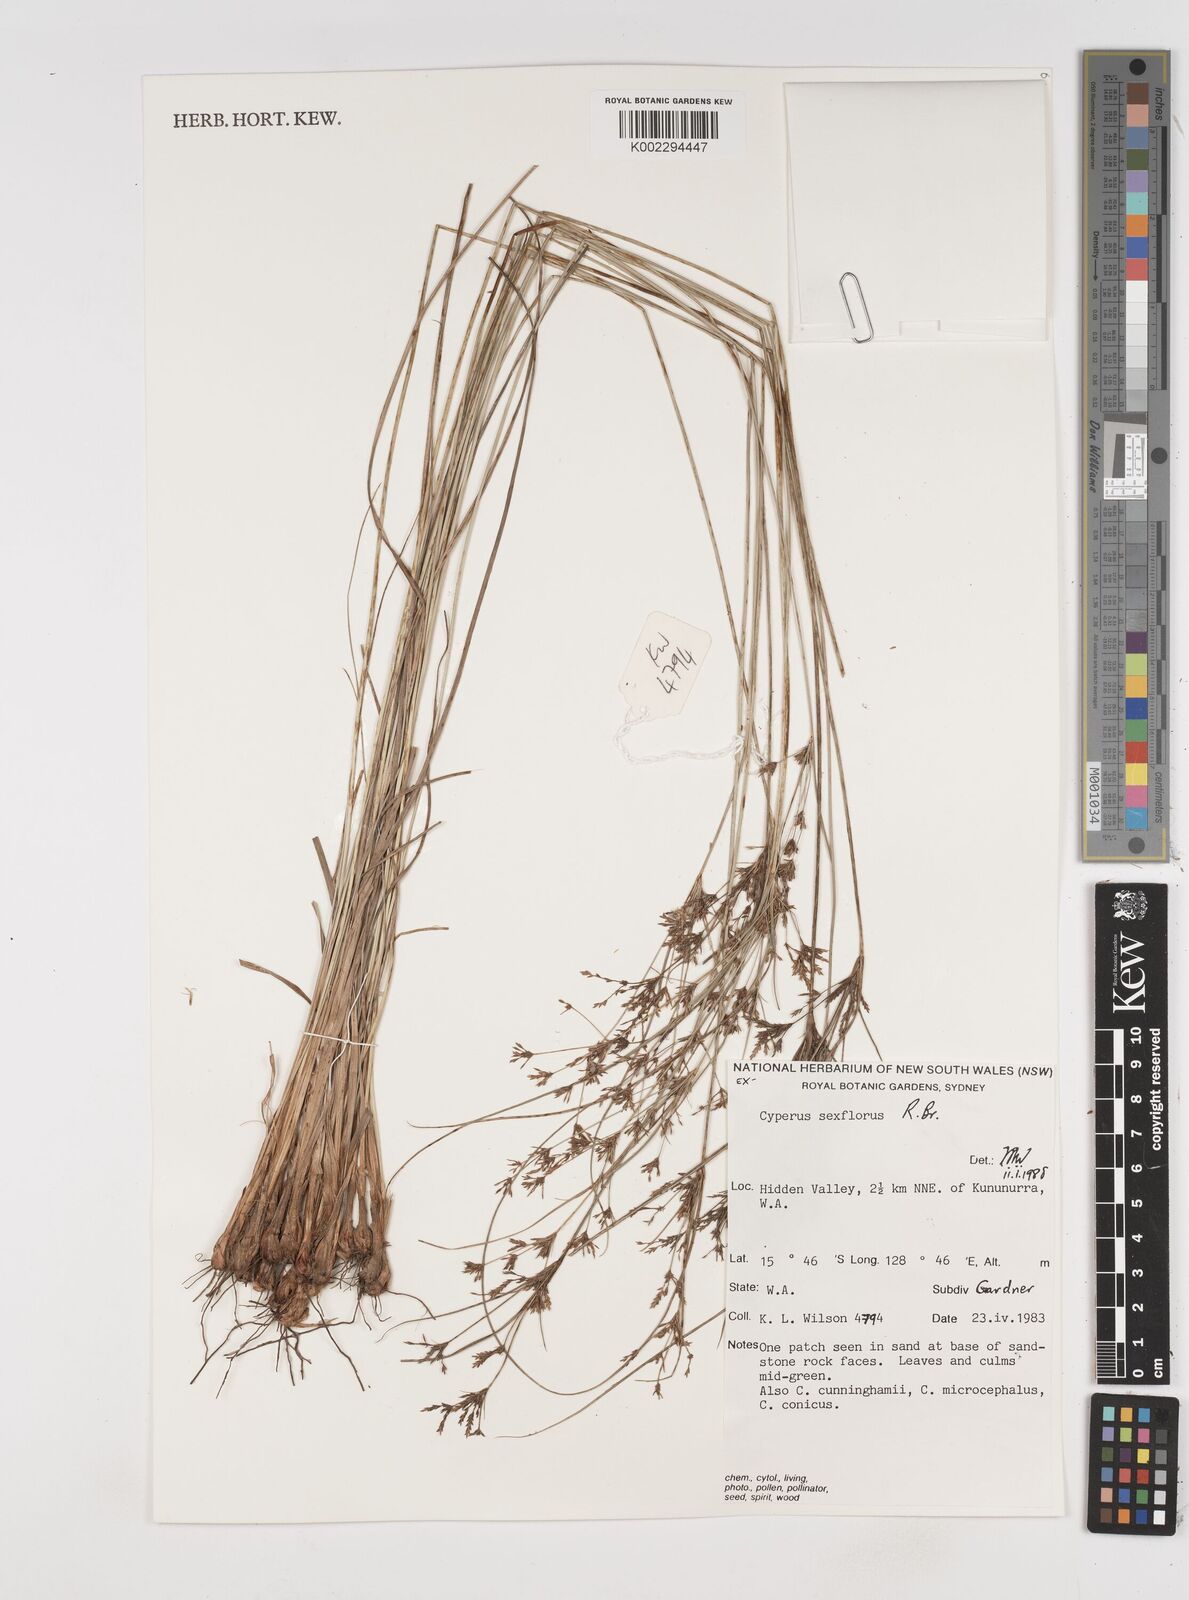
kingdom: Plantae
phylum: Tracheophyta
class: Liliopsida
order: Poales
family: Cyperaceae
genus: Cyperus
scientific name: Cyperus sexflorus
